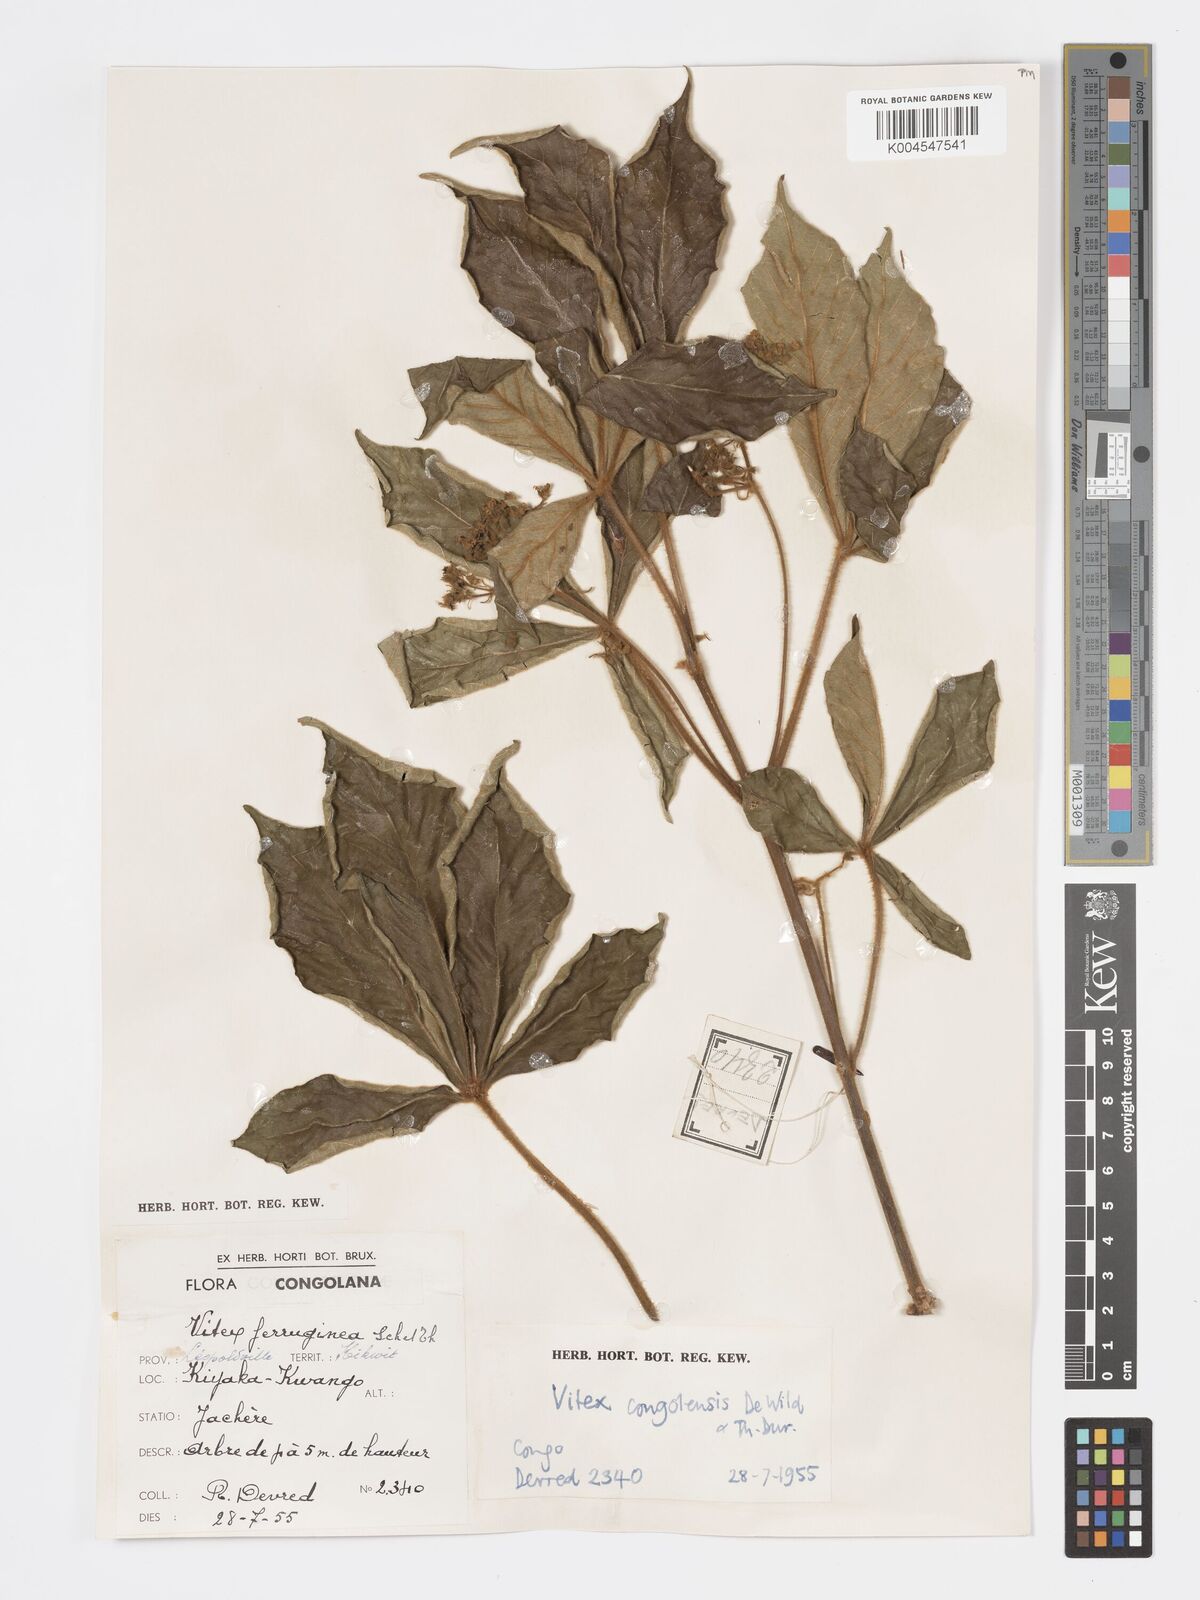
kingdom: Plantae
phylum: Tracheophyta
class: Magnoliopsida
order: Lamiales
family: Lamiaceae
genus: Vitex
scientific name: Vitex congolensis
